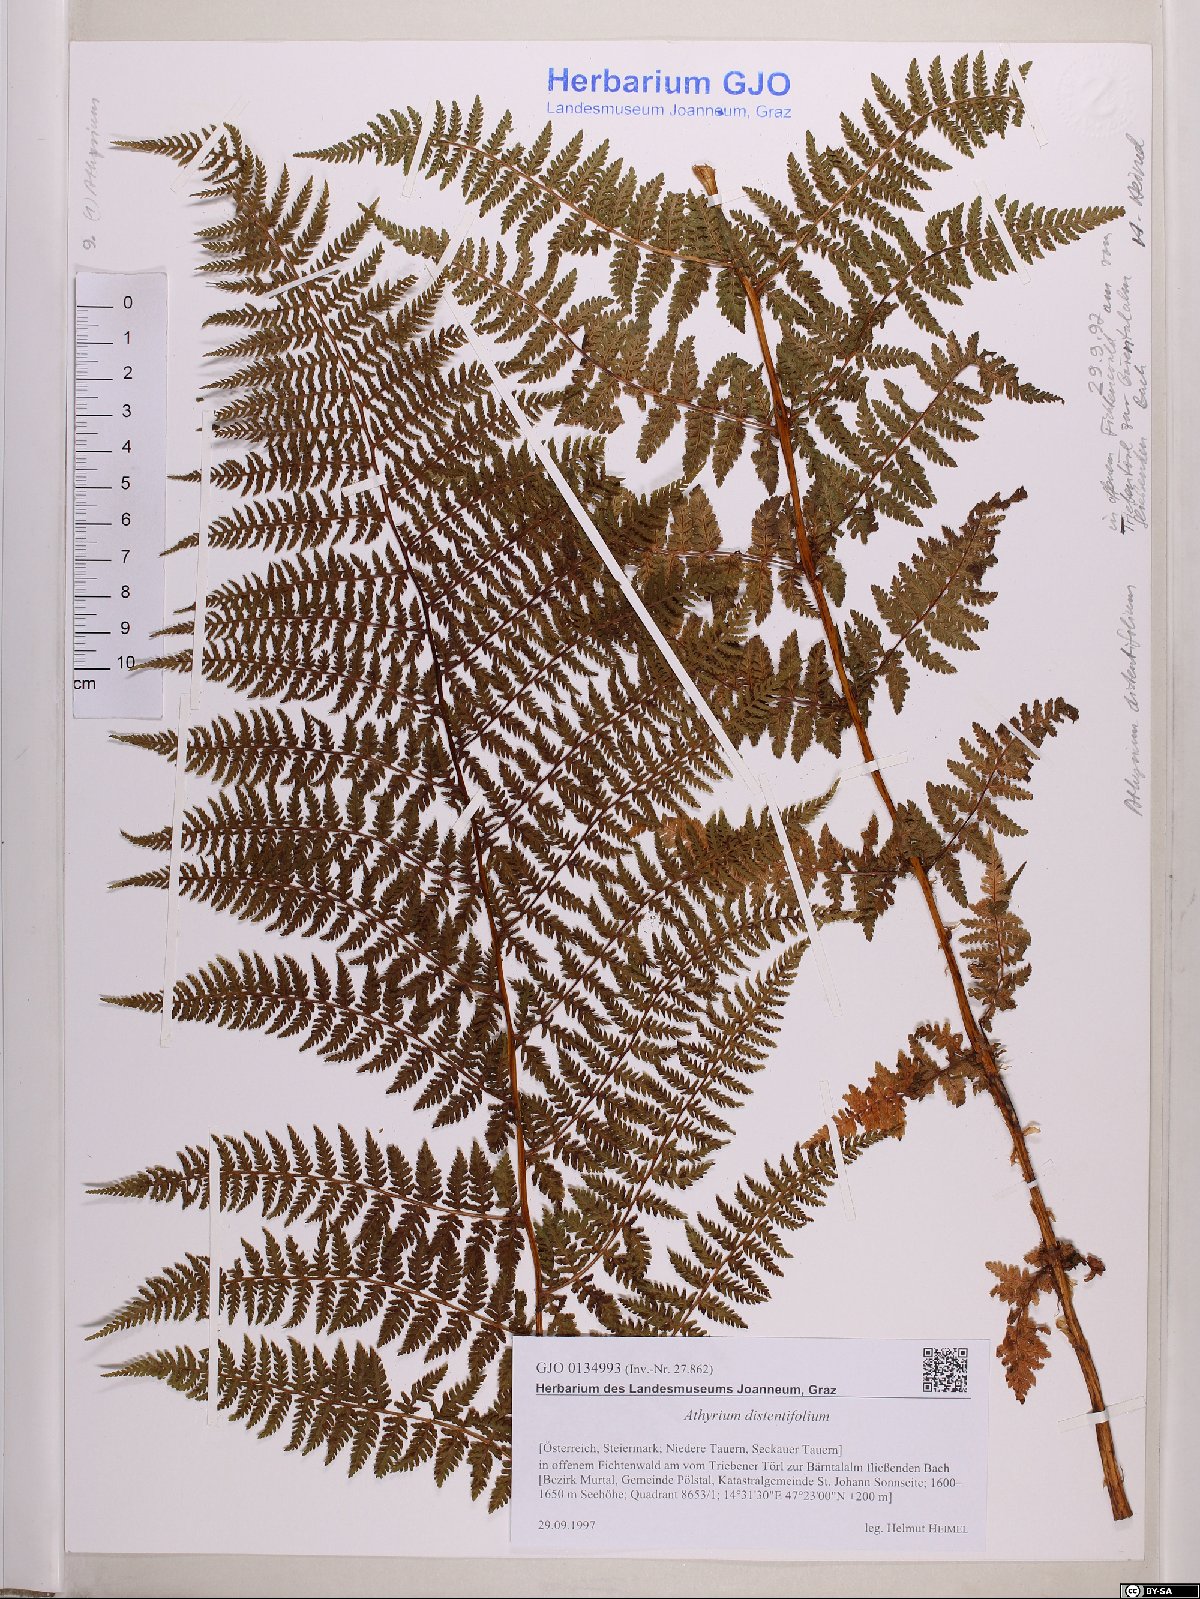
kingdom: Plantae
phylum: Tracheophyta
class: Polypodiopsida
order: Polypodiales
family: Athyriaceae
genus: Pseudathyrium
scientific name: Pseudathyrium alpestre
